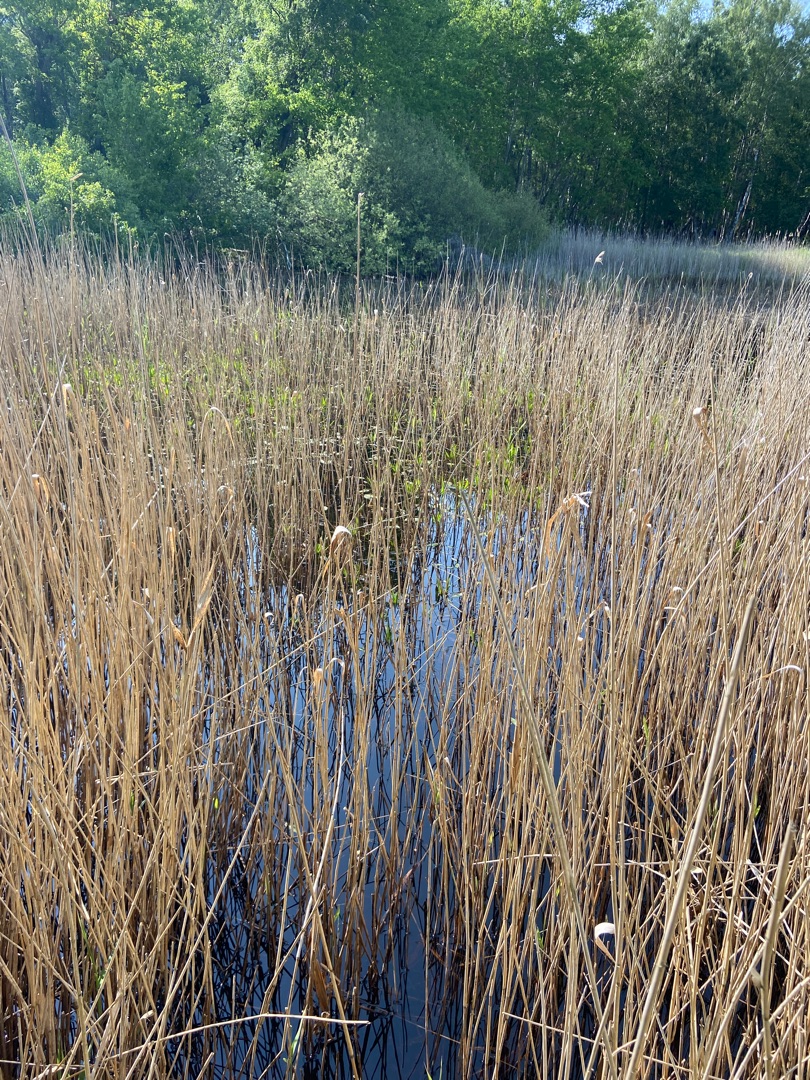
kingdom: Plantae
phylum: Tracheophyta
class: Liliopsida
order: Poales
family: Poaceae
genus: Phragmites
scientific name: Phragmites australis
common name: Tagrør
